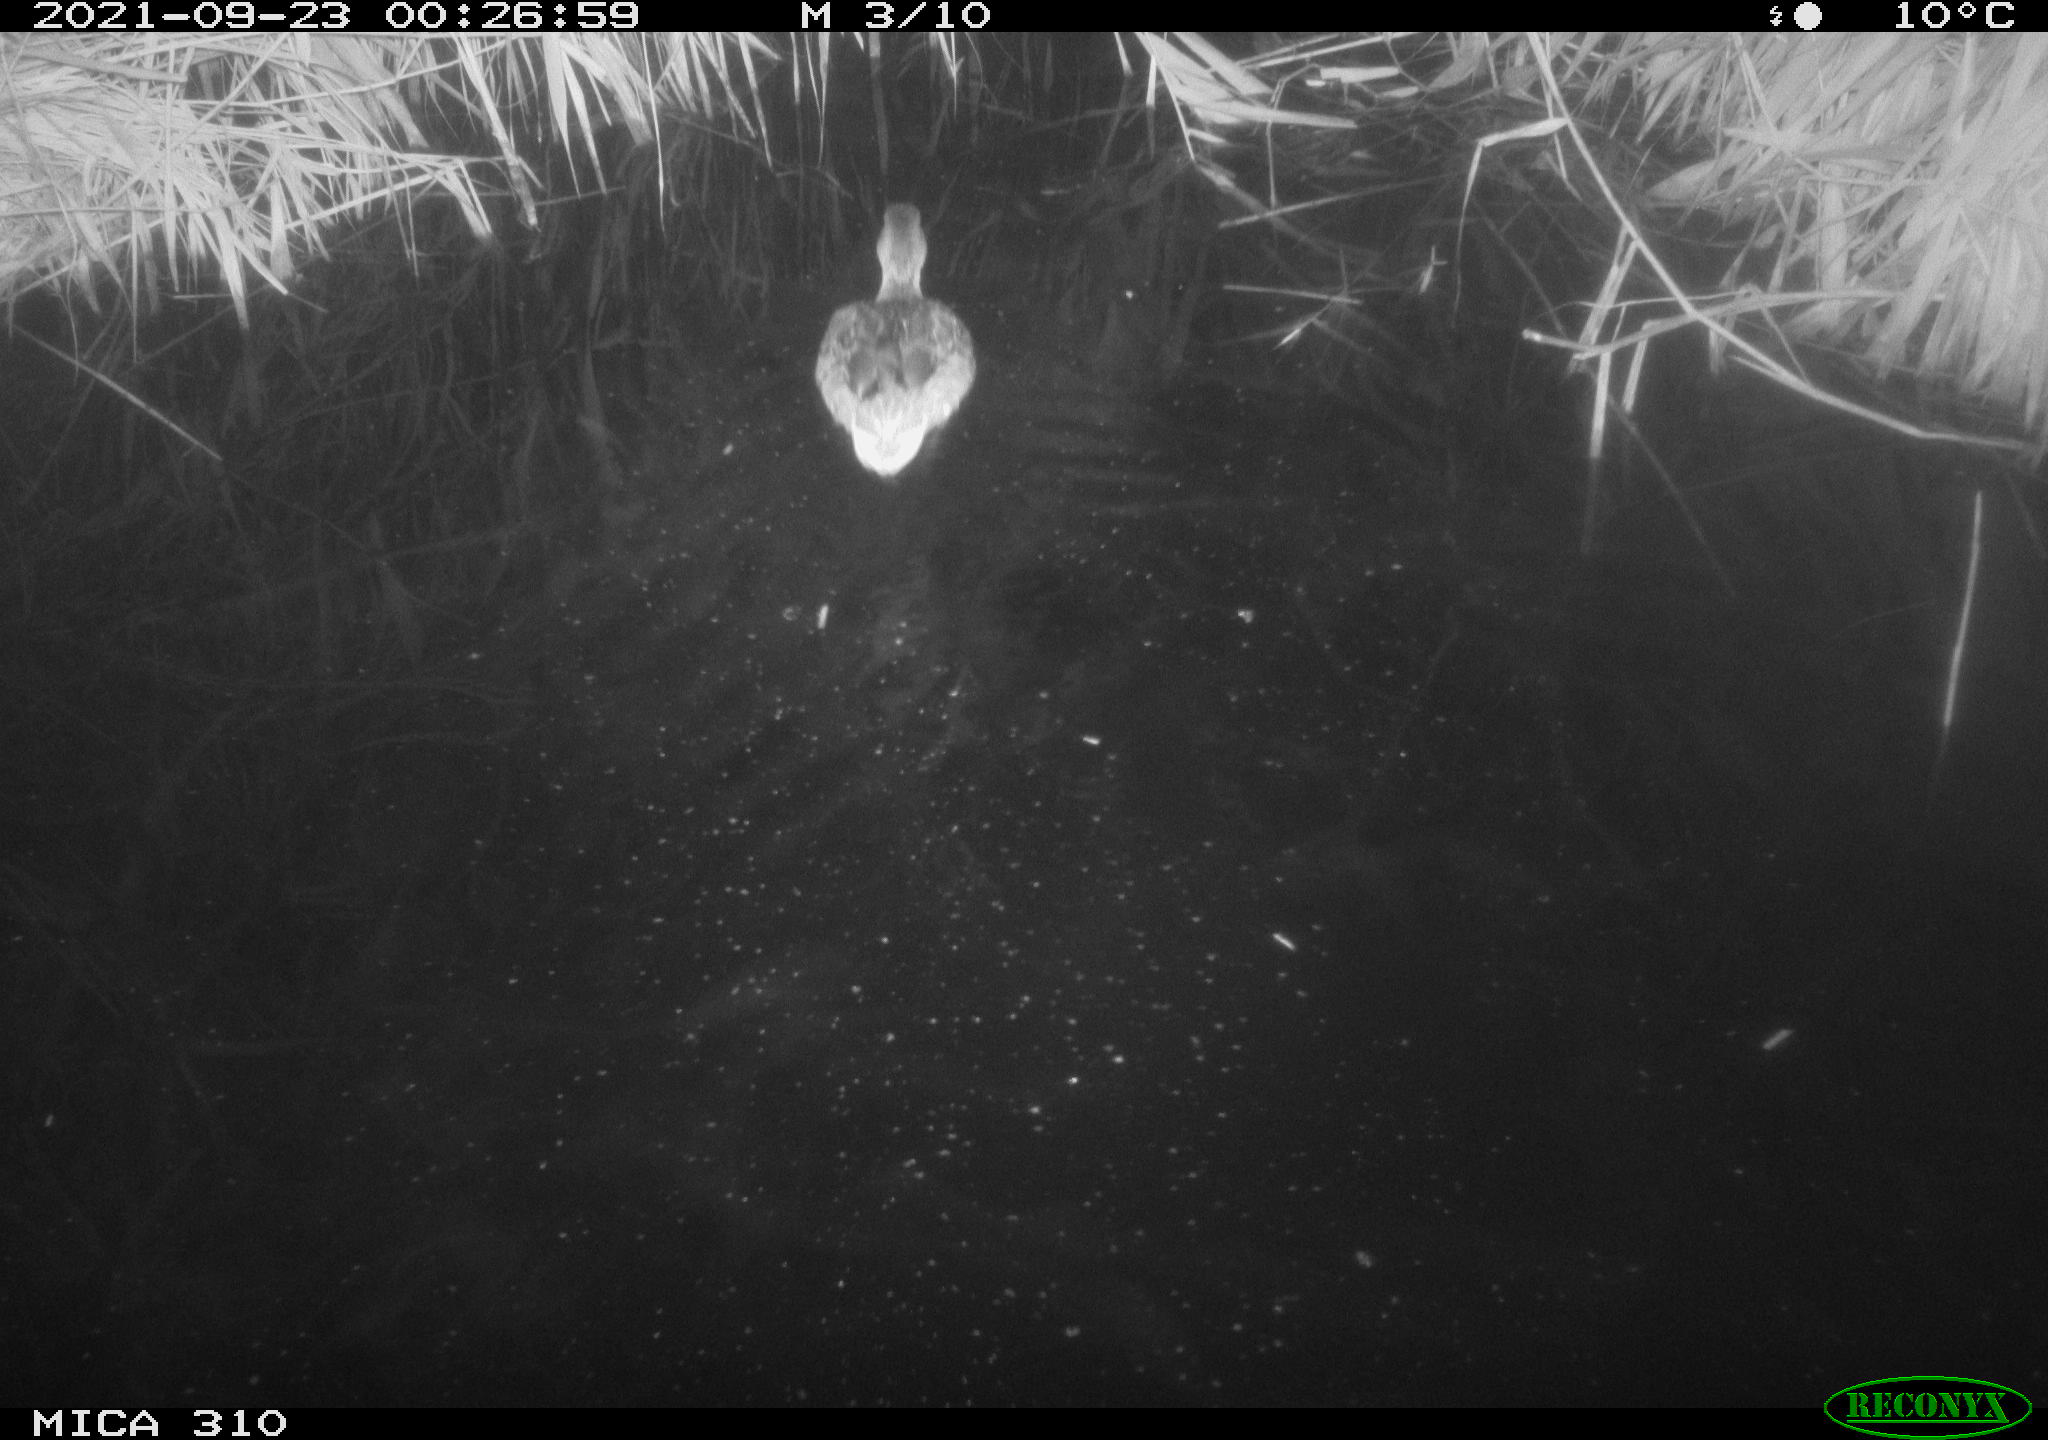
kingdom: Animalia
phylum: Chordata
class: Mammalia
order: Rodentia
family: Muridae
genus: Rattus
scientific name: Rattus norvegicus
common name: Brown rat
